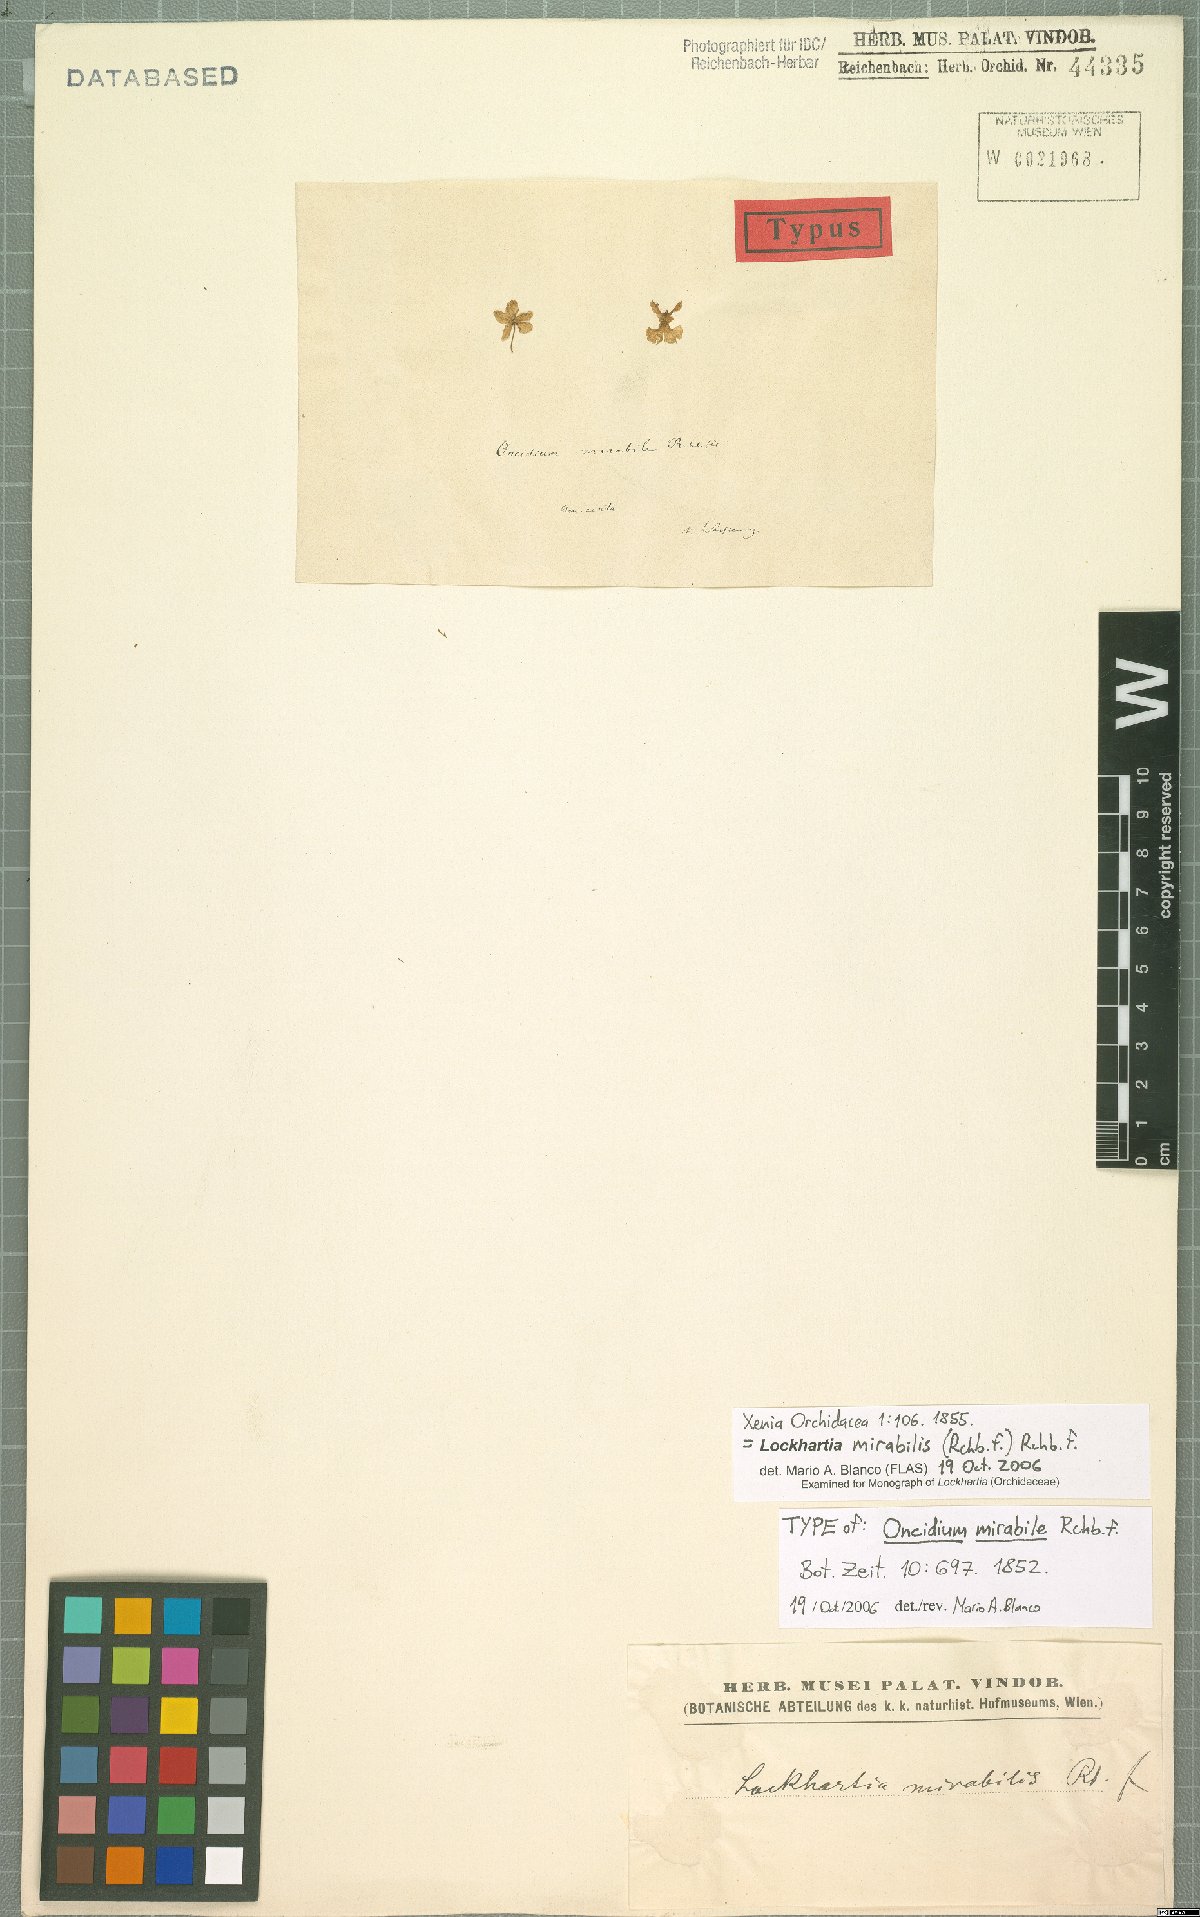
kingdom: Plantae
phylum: Tracheophyta
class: Liliopsida
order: Asparagales
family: Orchidaceae
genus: Lockhartia
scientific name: Lockhartia oerstedii
